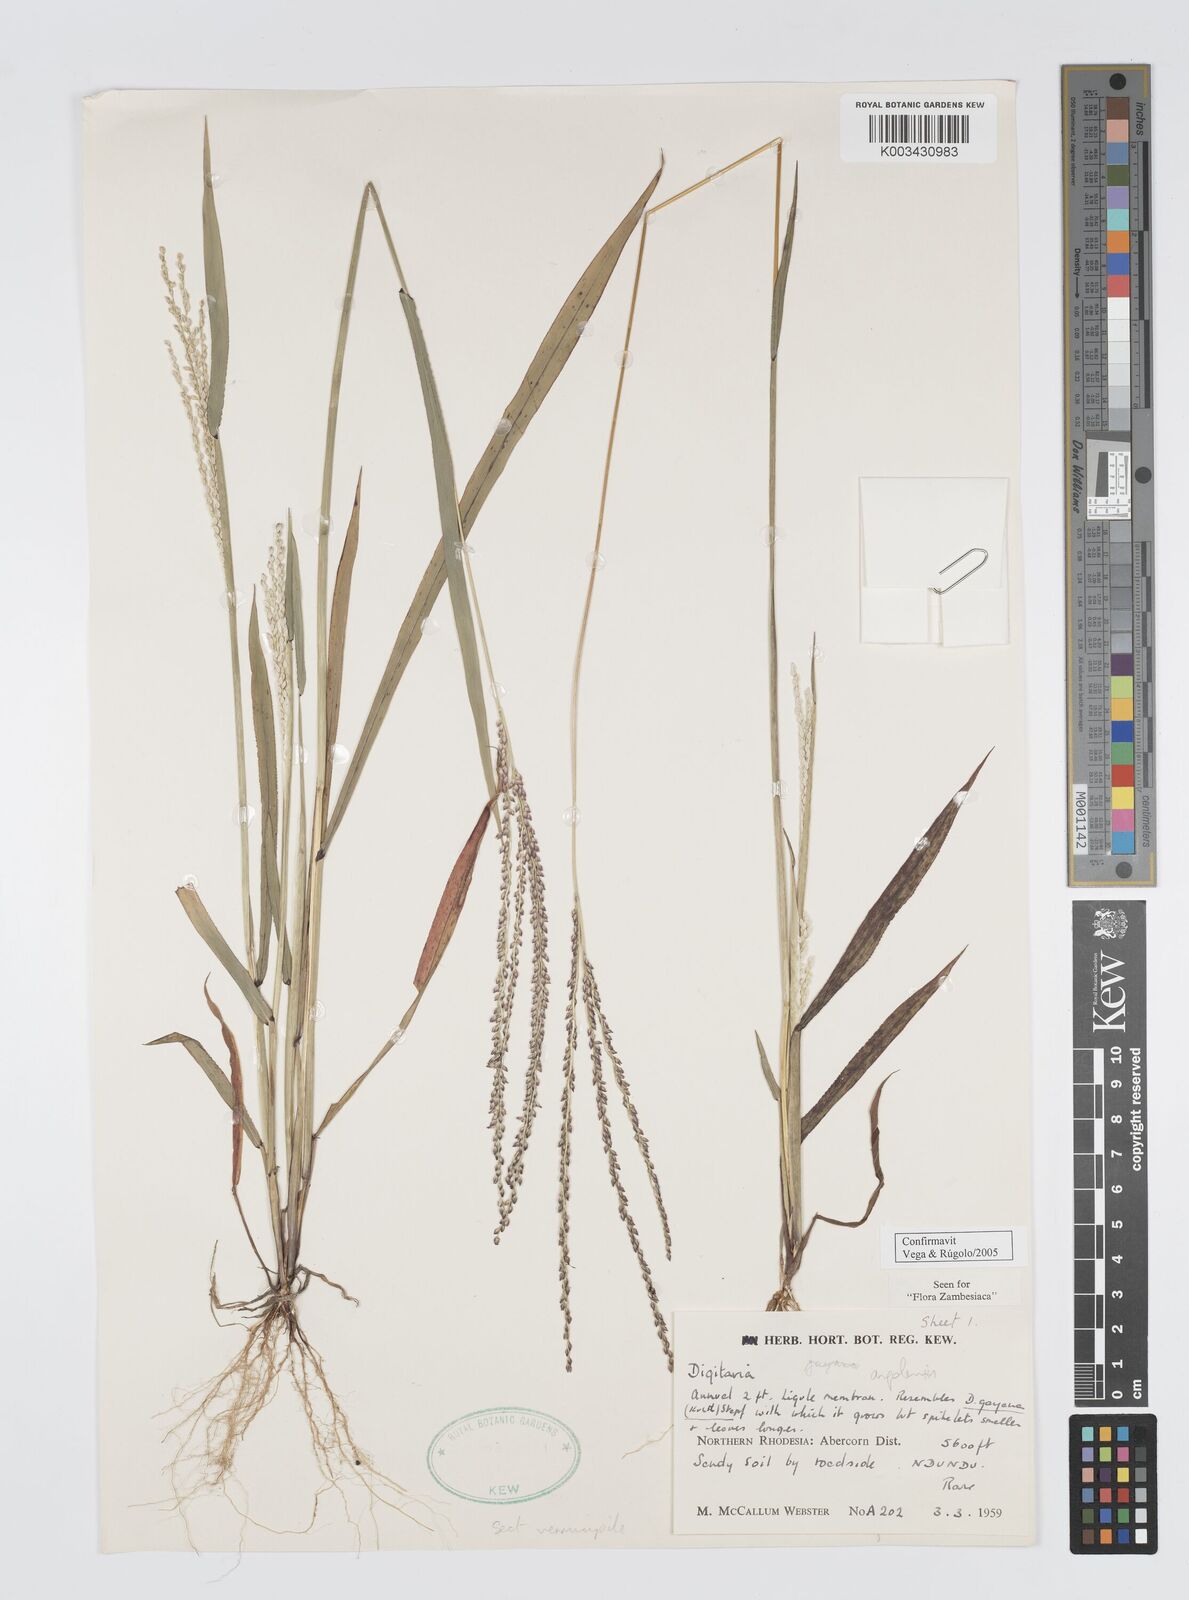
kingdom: Plantae
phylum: Tracheophyta
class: Liliopsida
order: Poales
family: Poaceae
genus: Digitaria
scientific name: Digitaria angolensis
